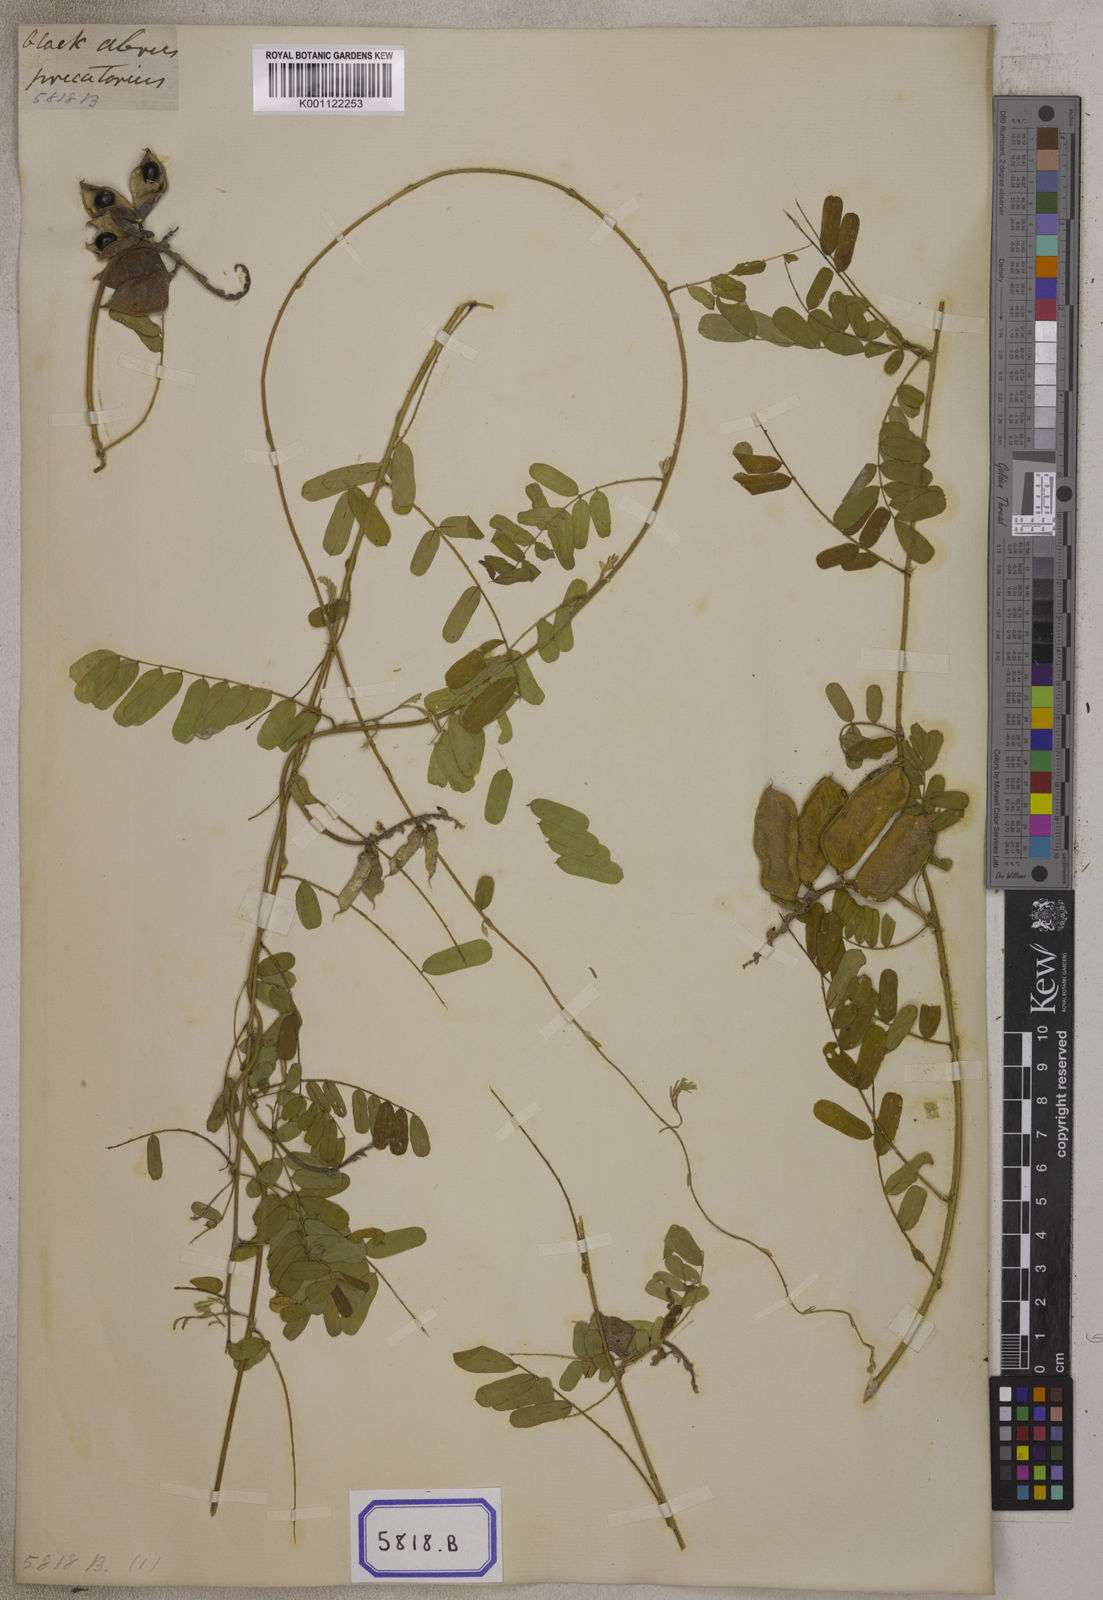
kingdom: Plantae
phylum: Tracheophyta
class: Magnoliopsida
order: Fabales
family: Fabaceae
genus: Abrus
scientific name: Abrus precatorius
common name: Rosarypea
